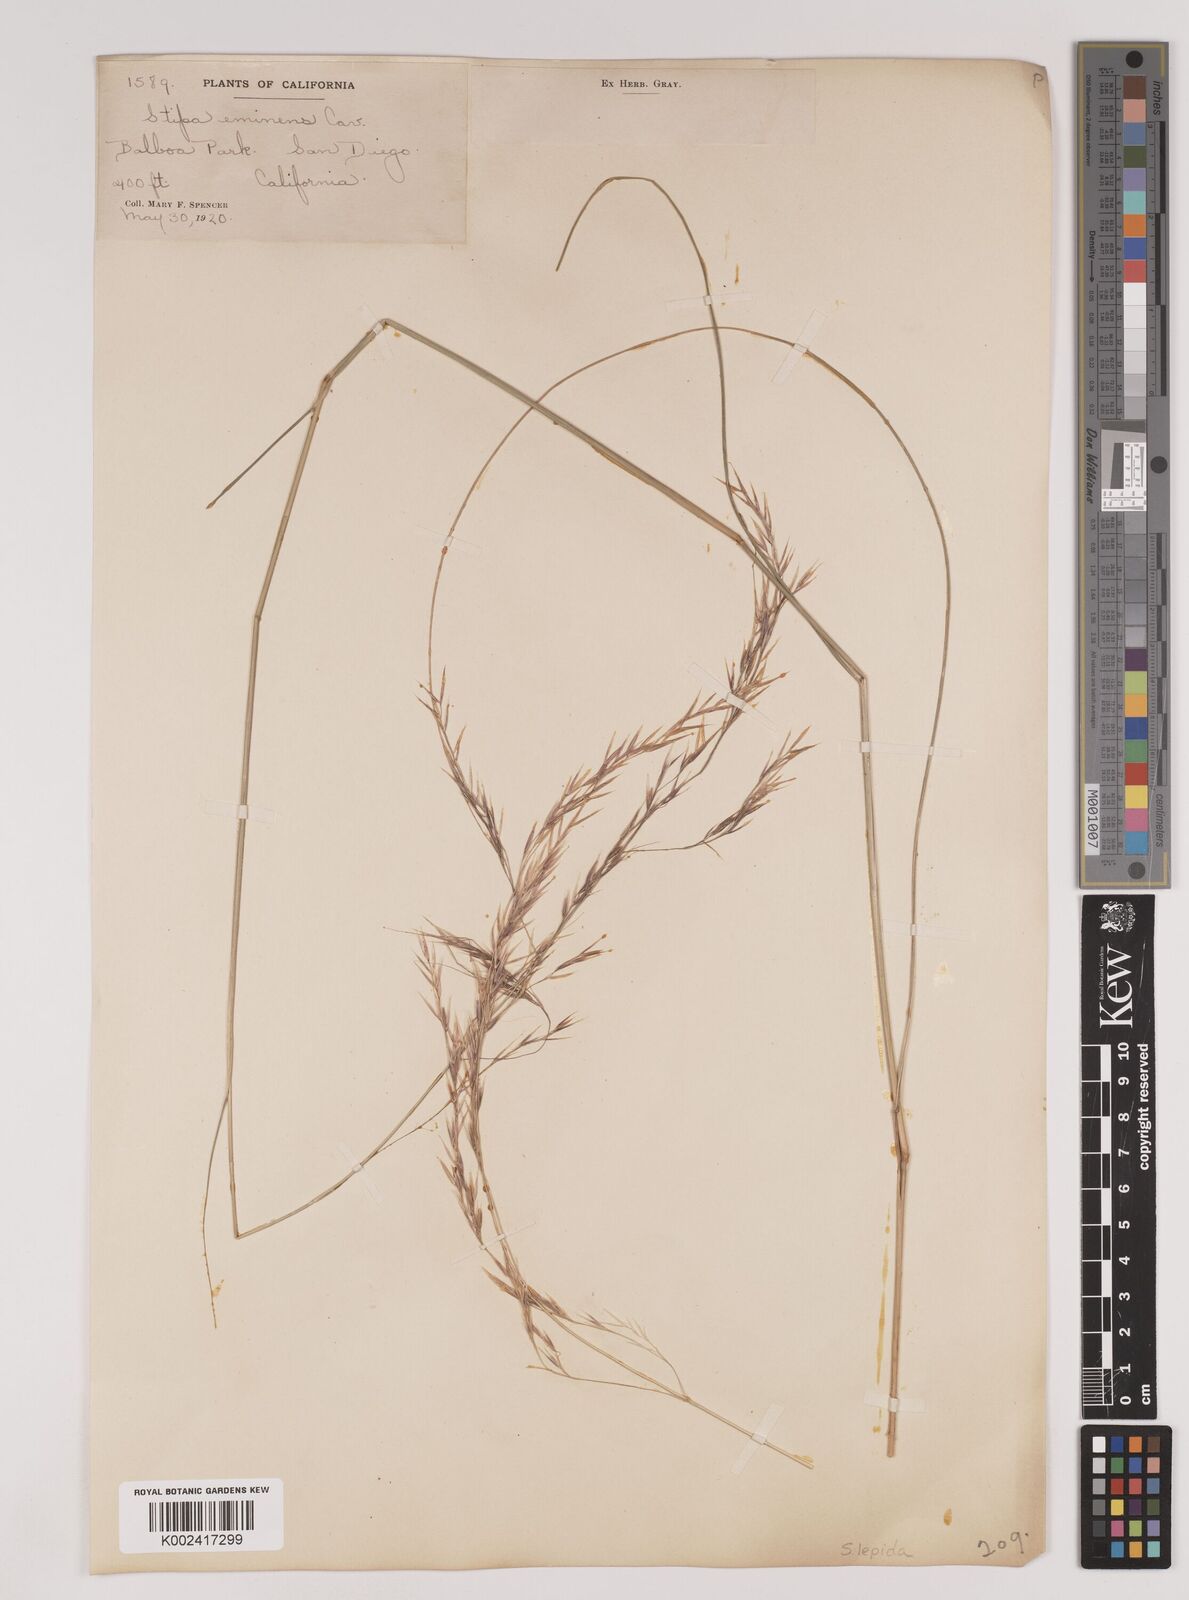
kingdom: Plantae
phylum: Tracheophyta
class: Liliopsida
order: Poales
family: Poaceae
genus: Nassella
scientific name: Nassella lepida
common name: Foothill needlegrass
